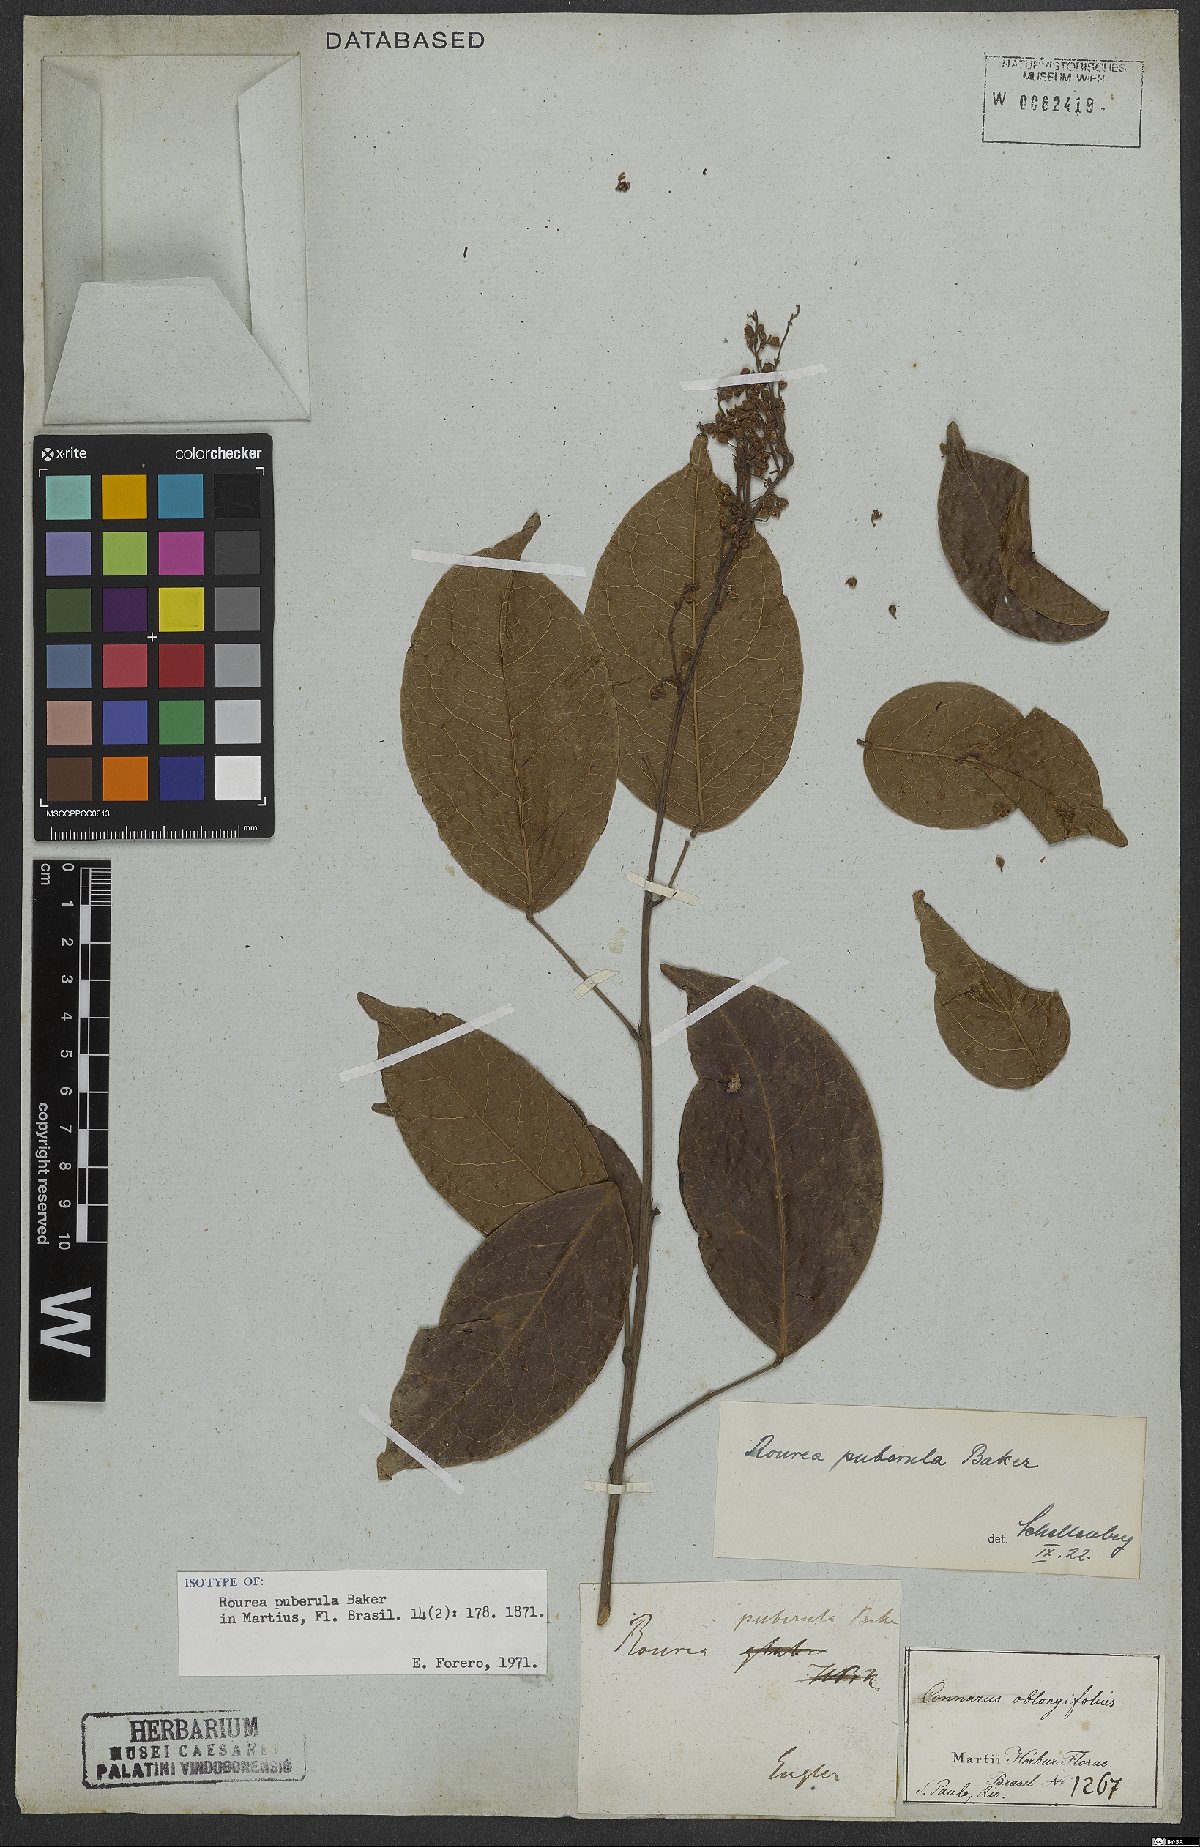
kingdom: Plantae
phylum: Tracheophyta
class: Magnoliopsida
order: Oxalidales
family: Connaraceae
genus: Rourea
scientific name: Rourea puberula
